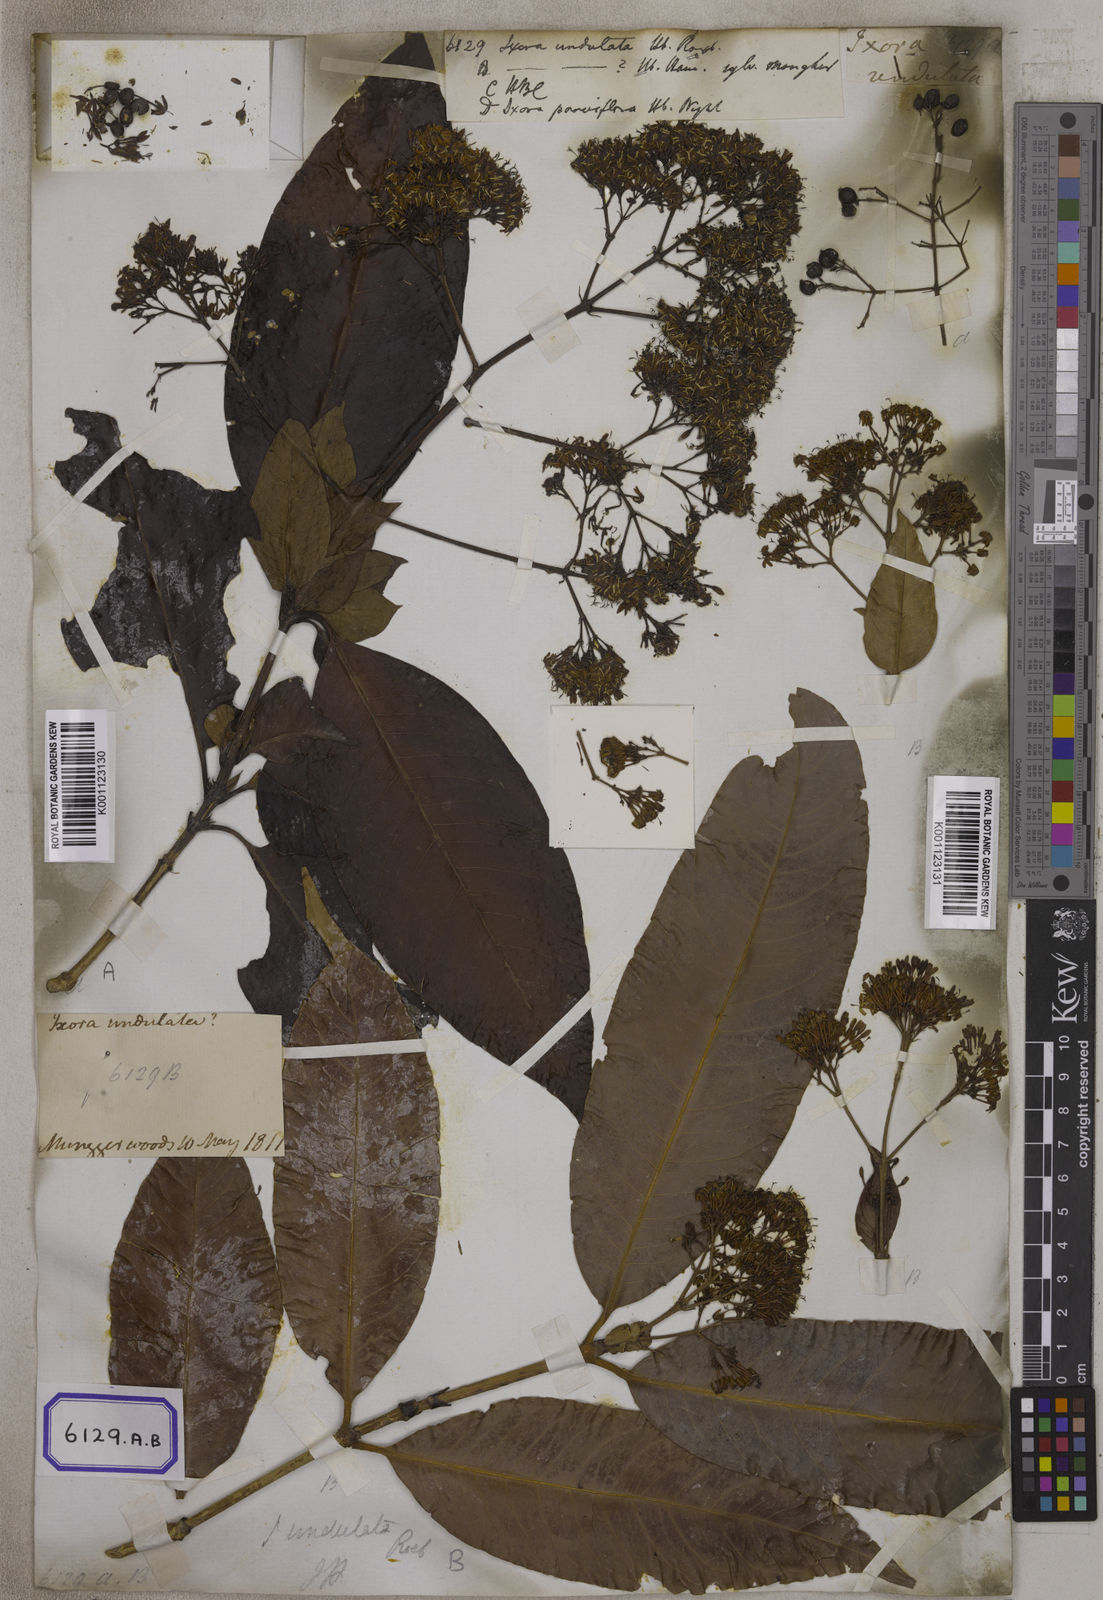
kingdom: Plantae
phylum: Tracheophyta
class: Magnoliopsida
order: Gentianales
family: Rubiaceae
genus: Ixora
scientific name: Ixora undulata
